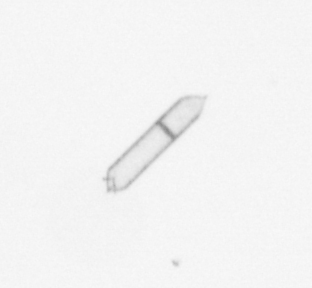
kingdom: Chromista
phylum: Ochrophyta
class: Bacillariophyceae
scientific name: Bacillariophyceae
